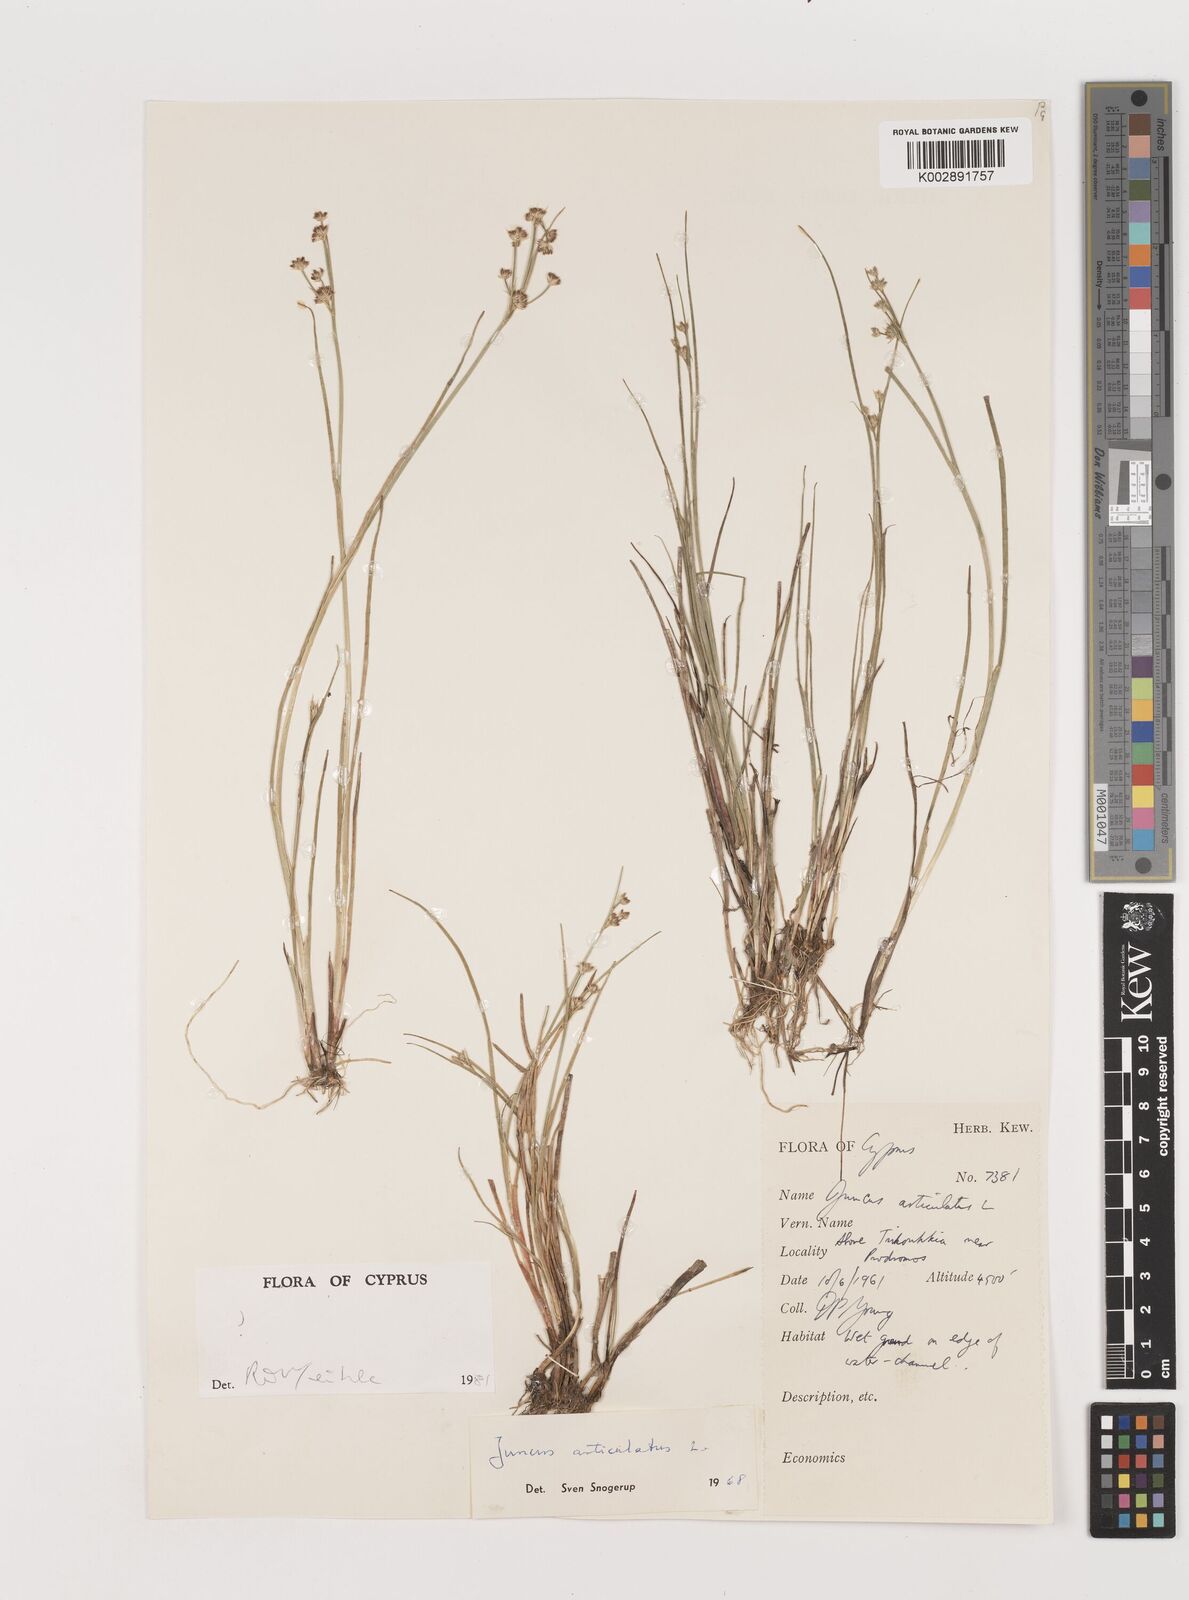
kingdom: Plantae
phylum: Tracheophyta
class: Liliopsida
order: Poales
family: Juncaceae
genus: Juncus
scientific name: Juncus articulatus
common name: Jointed rush
